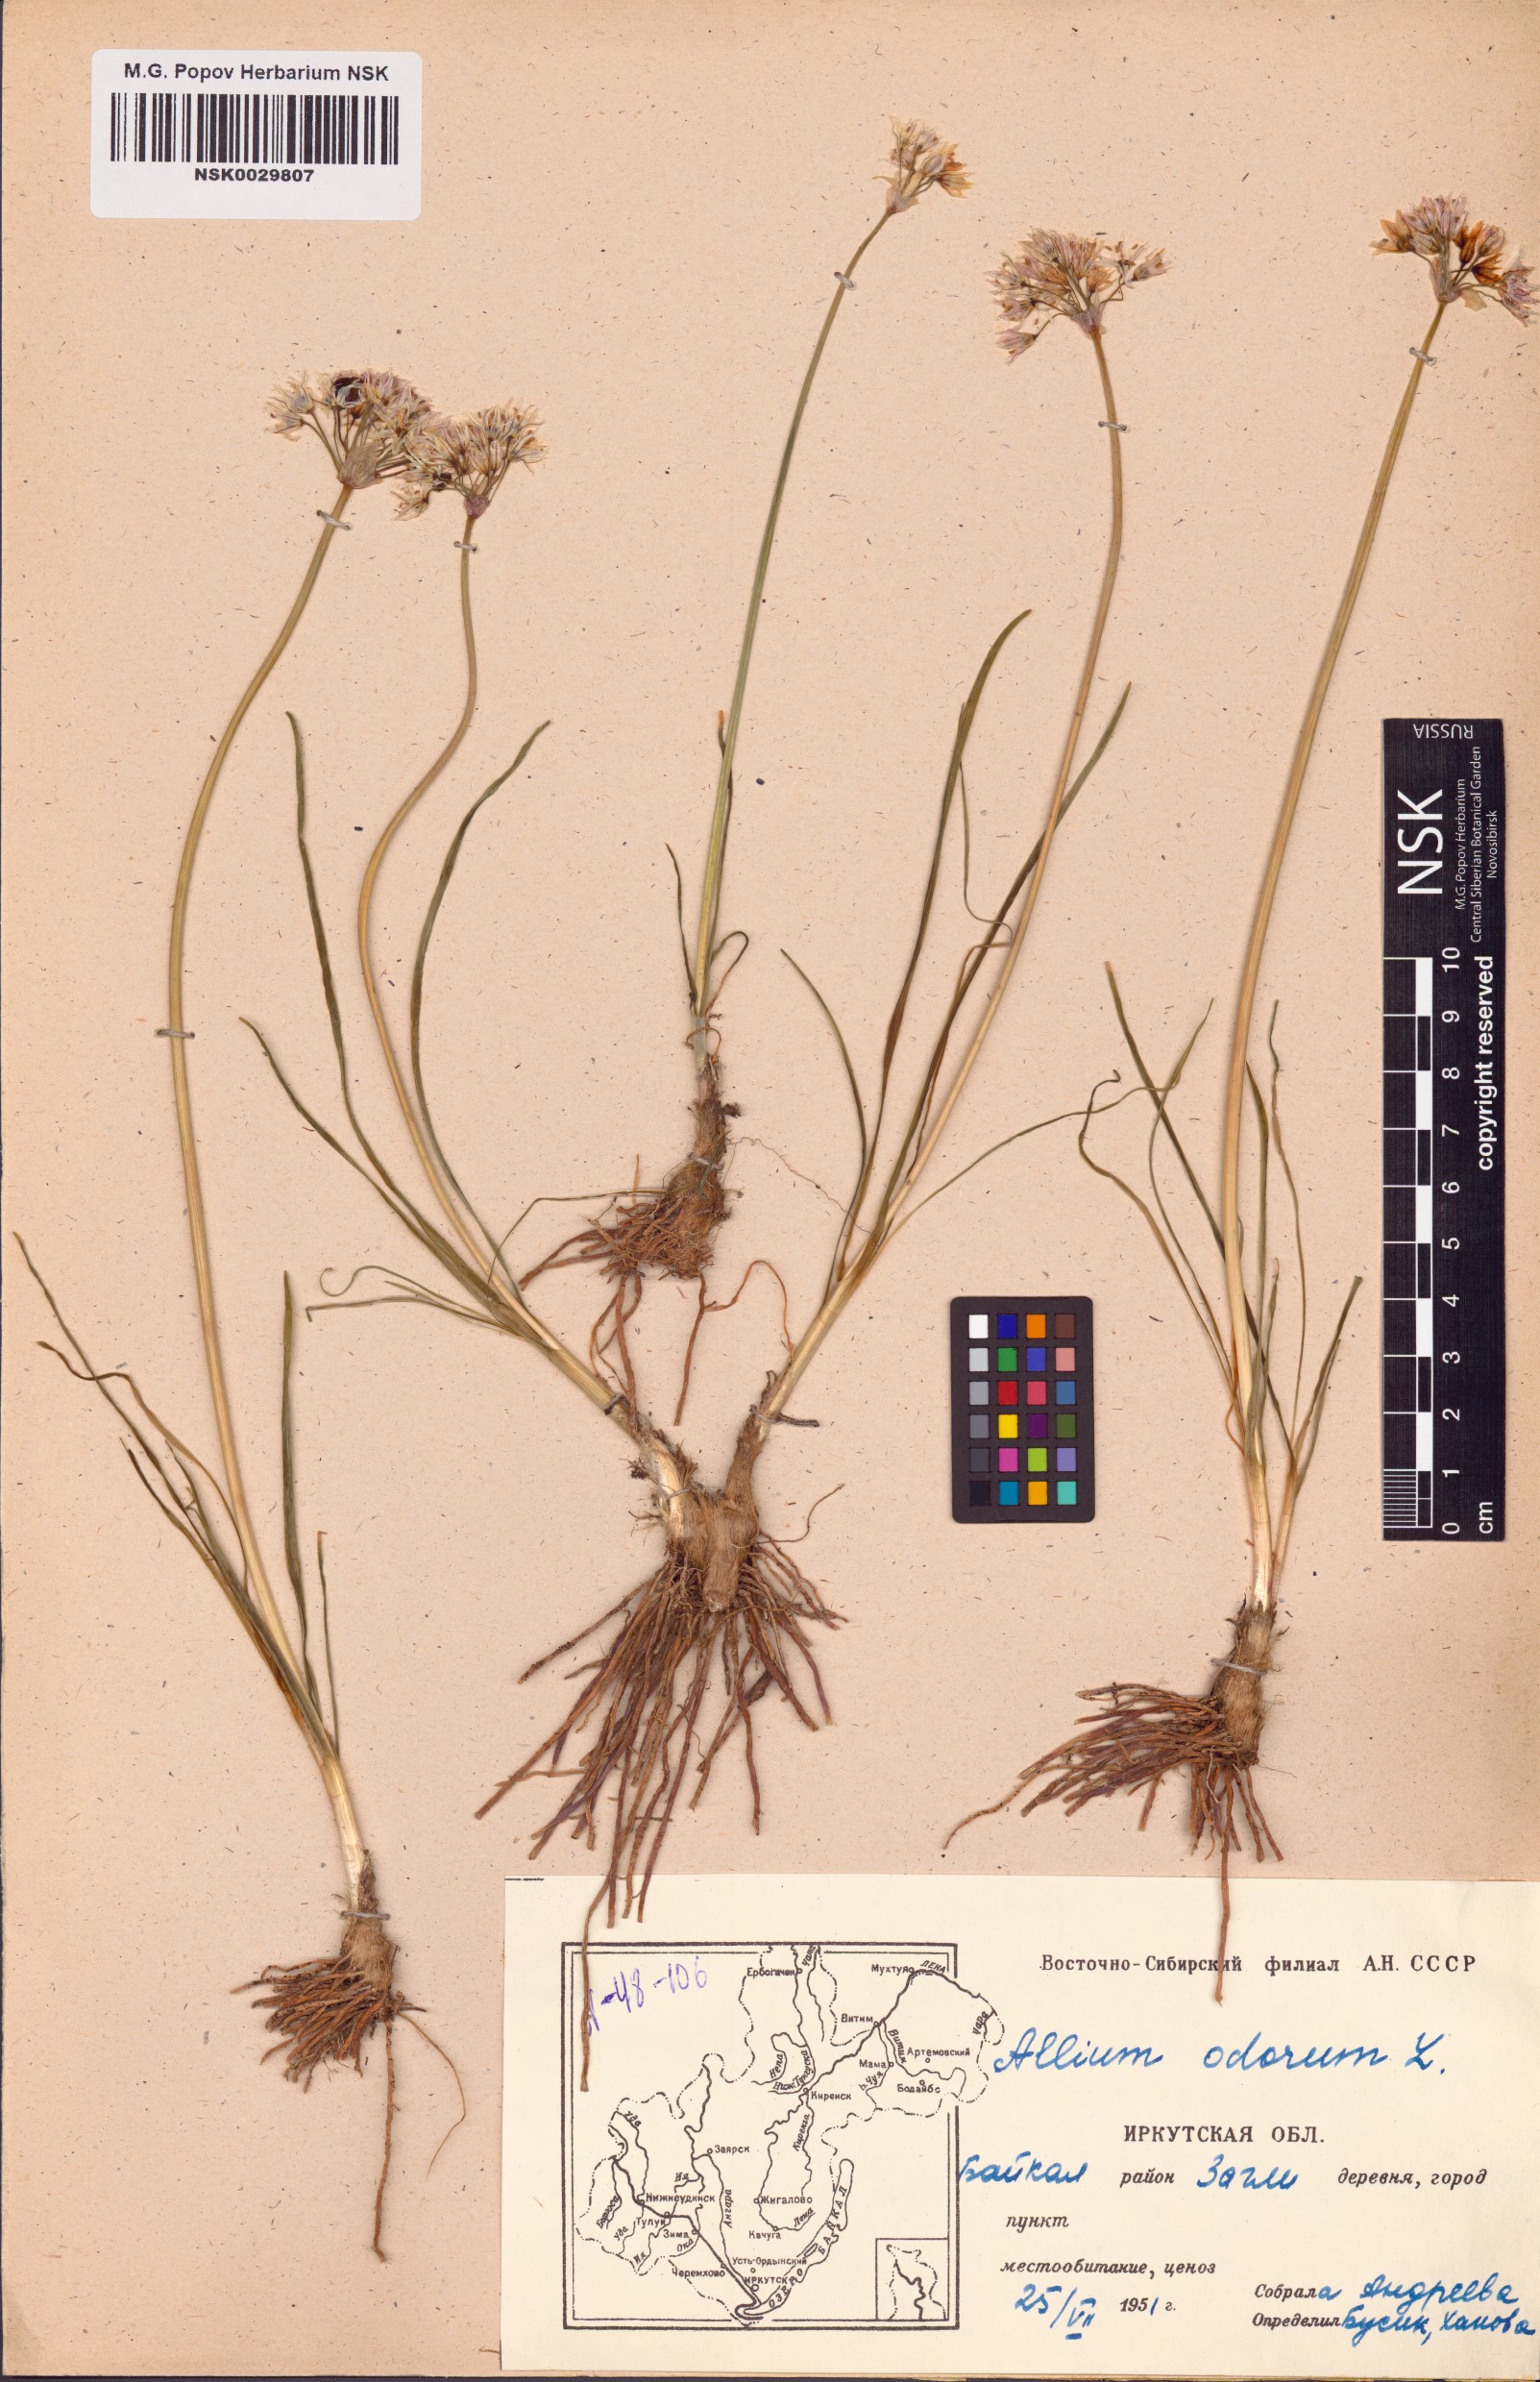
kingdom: Plantae
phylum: Tracheophyta
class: Liliopsida
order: Asparagales
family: Amaryllidaceae
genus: Allium
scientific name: Allium ramosum
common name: Fragrant garlic
